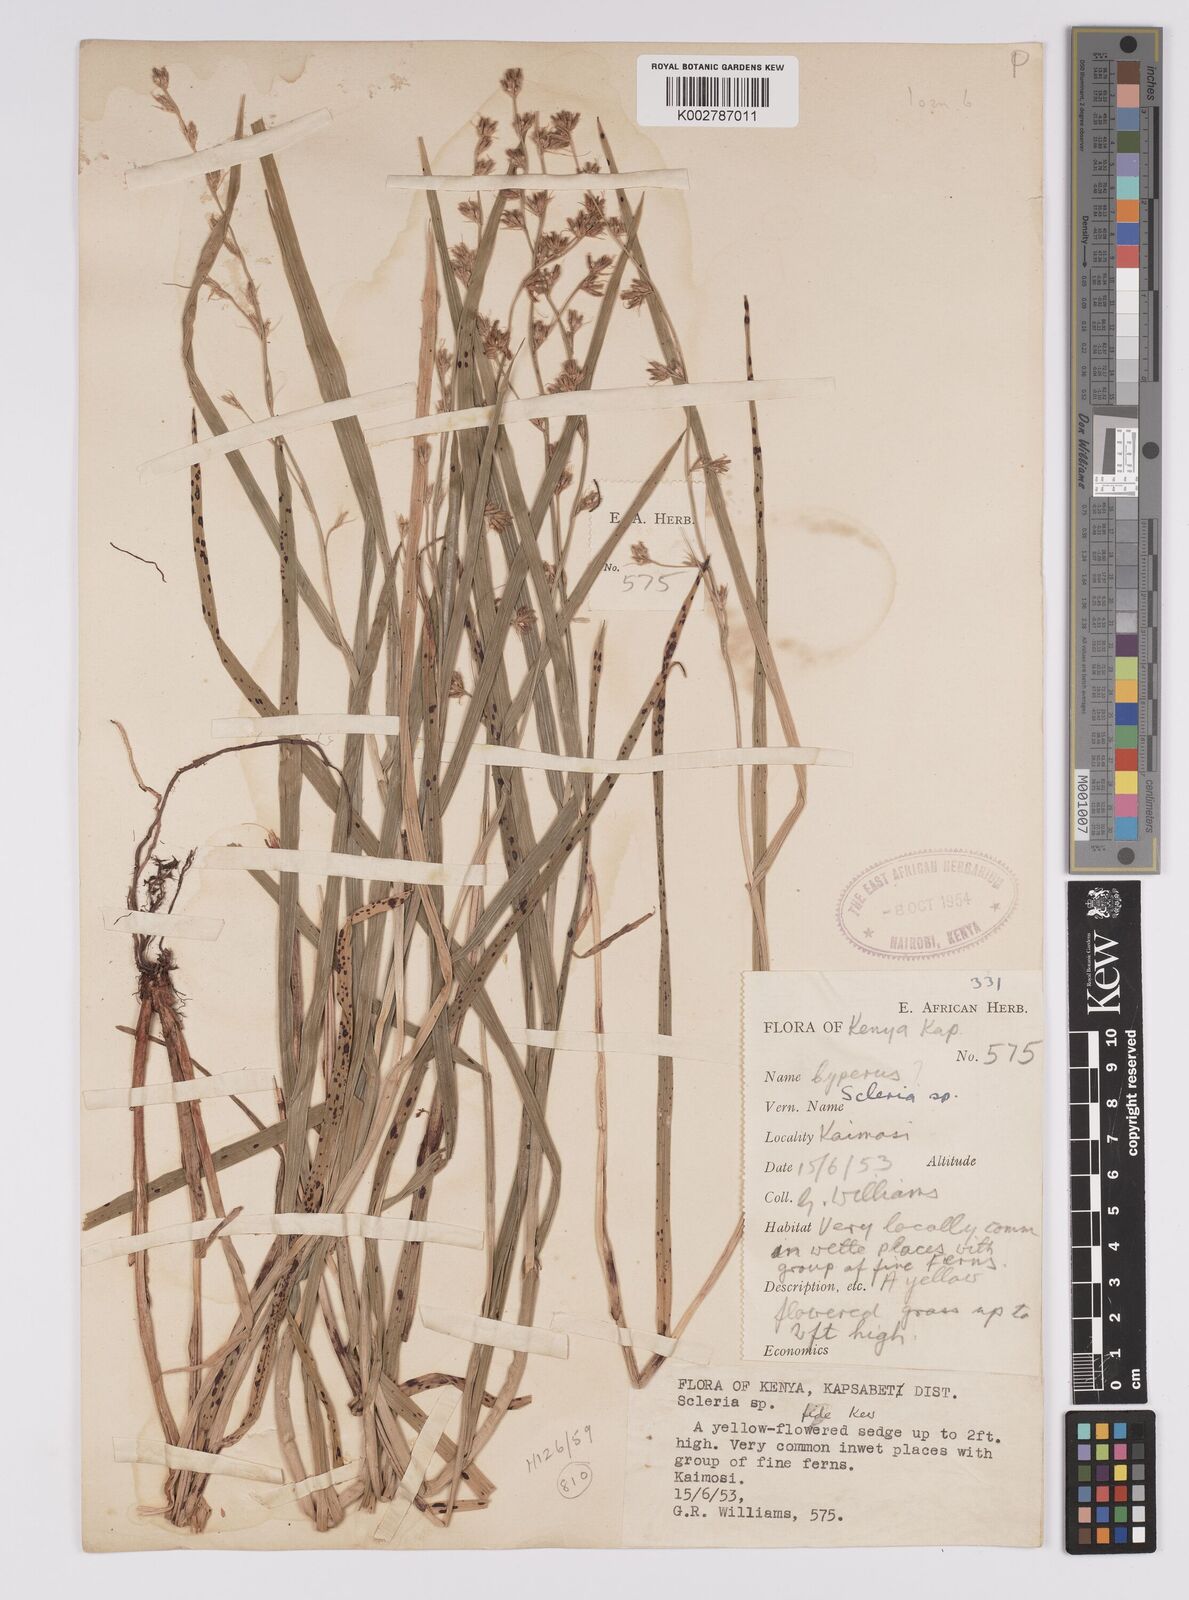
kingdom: Plantae
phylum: Tracheophyta
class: Liliopsida
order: Poales
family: Cyperaceae
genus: Scleria
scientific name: Scleria
